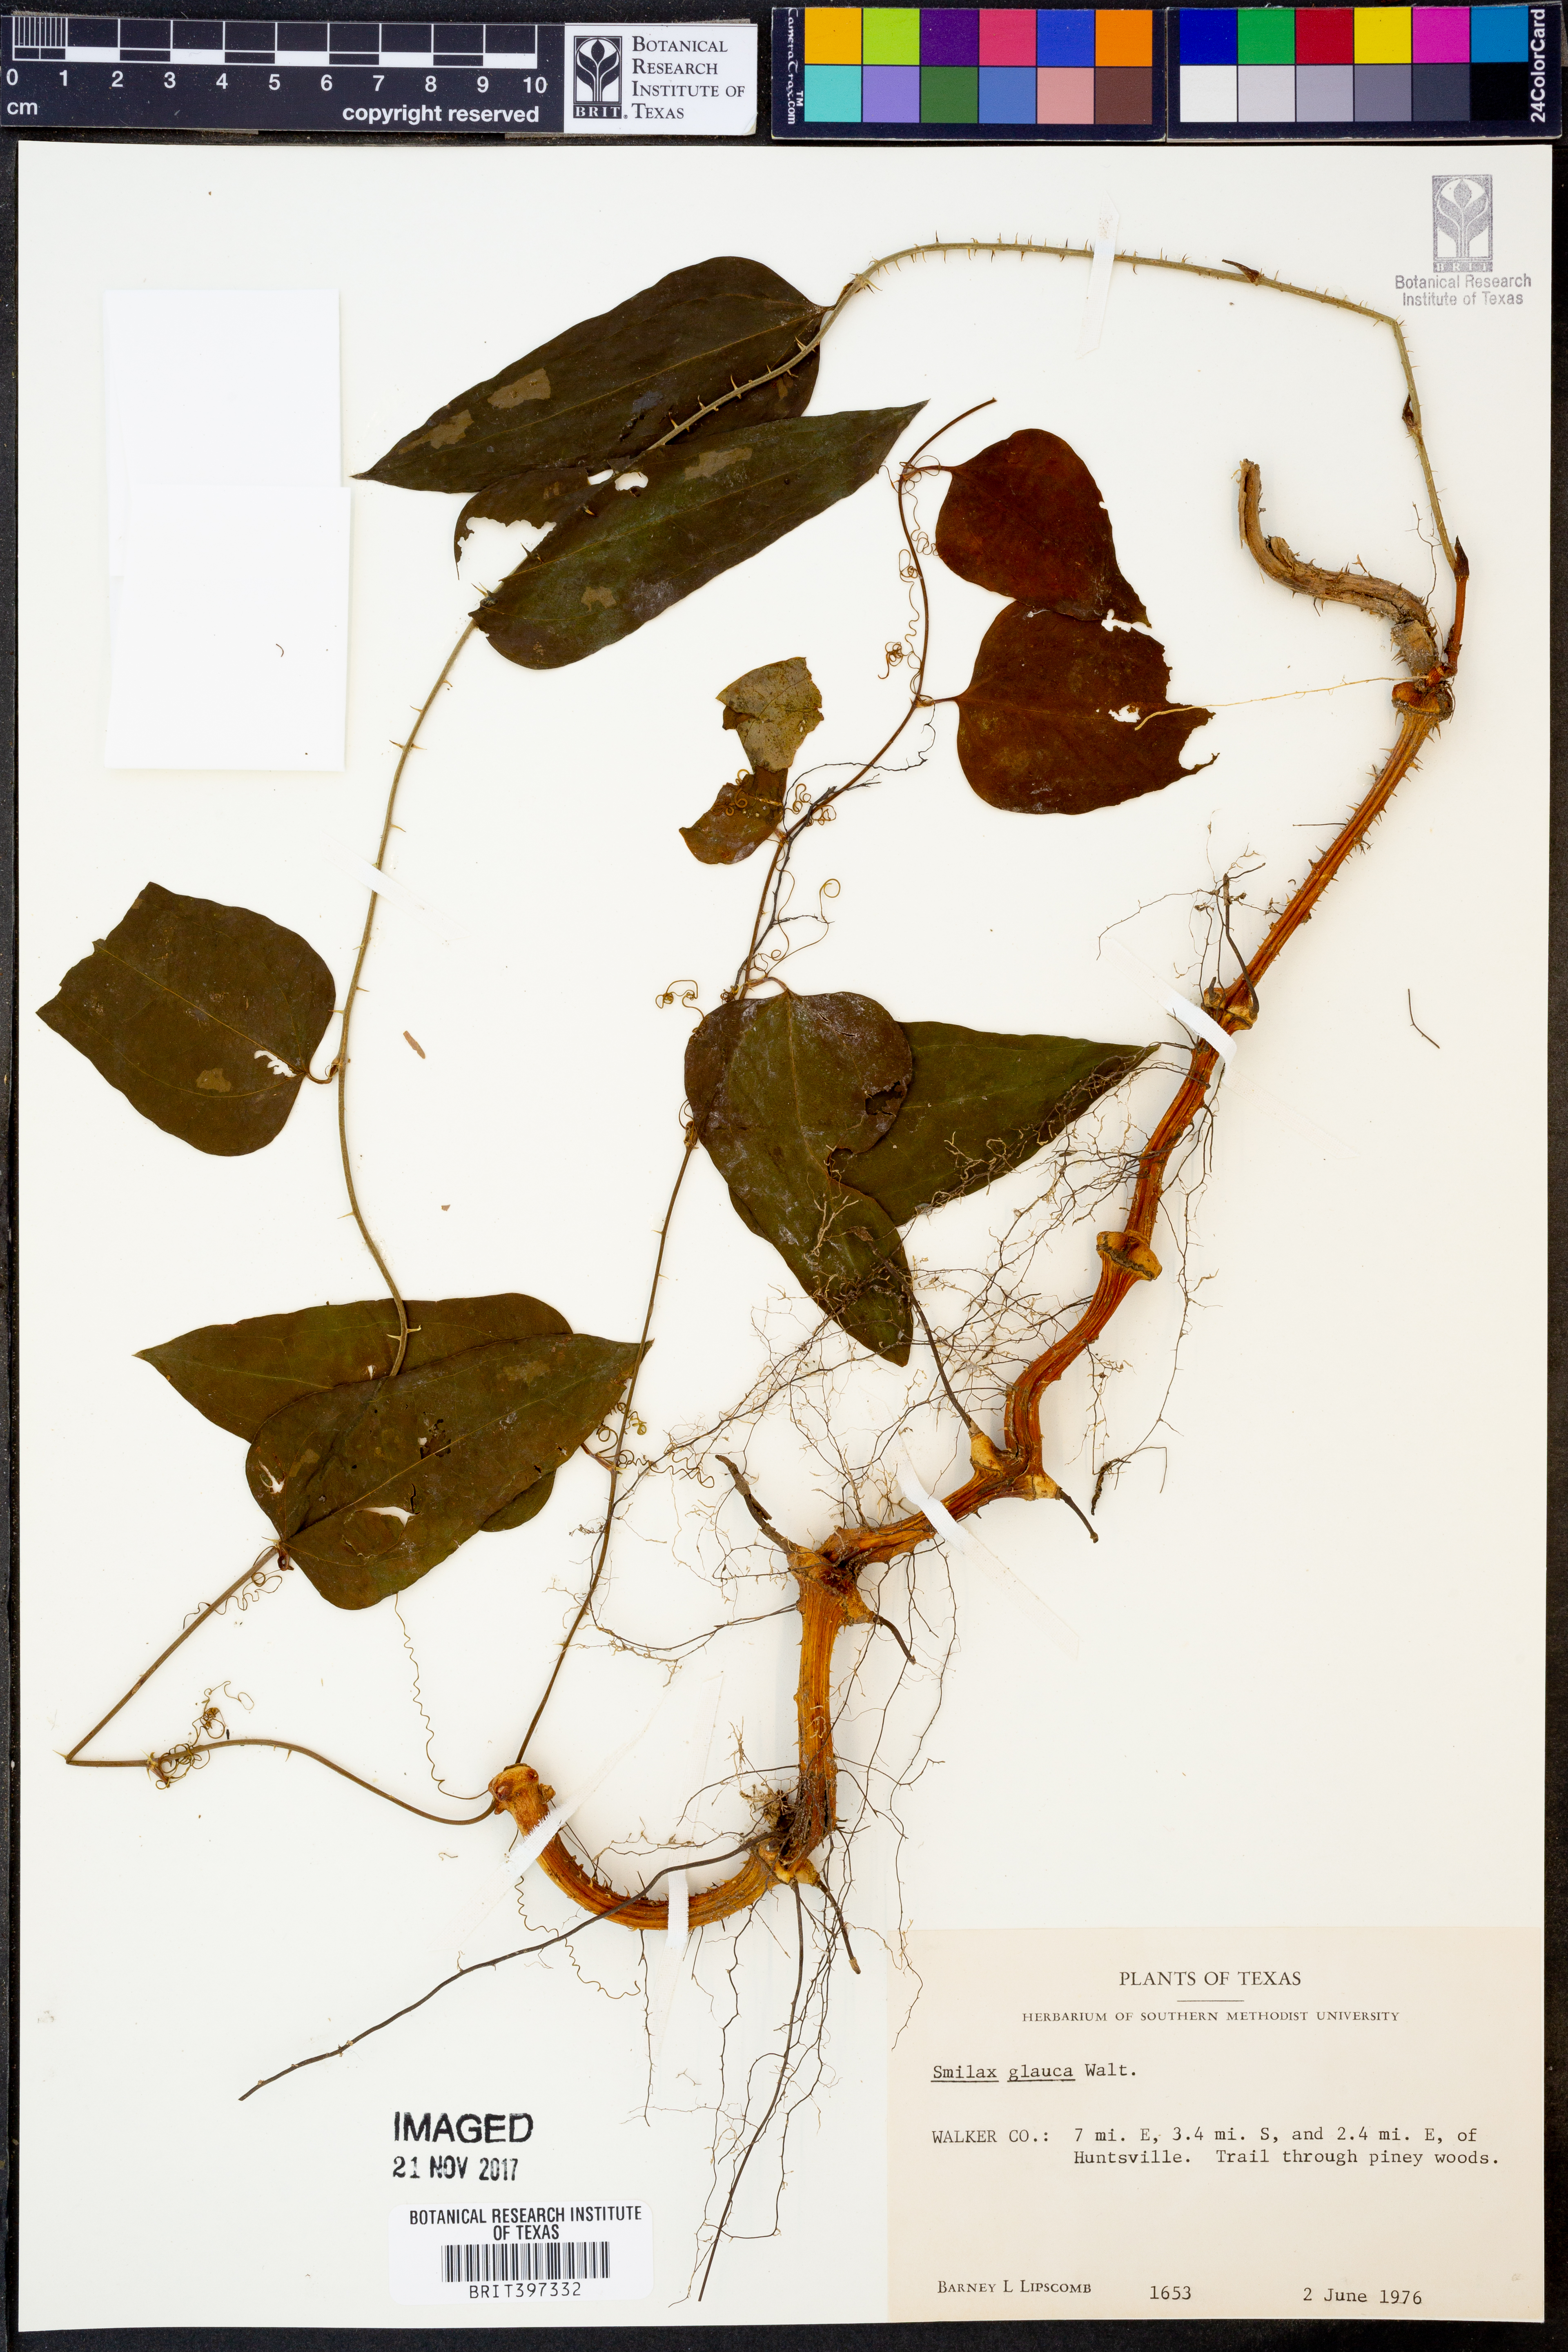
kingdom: Plantae
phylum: Tracheophyta
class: Liliopsida
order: Liliales
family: Smilacaceae
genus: Smilax
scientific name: Smilax glauca
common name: Cat greenbrier
